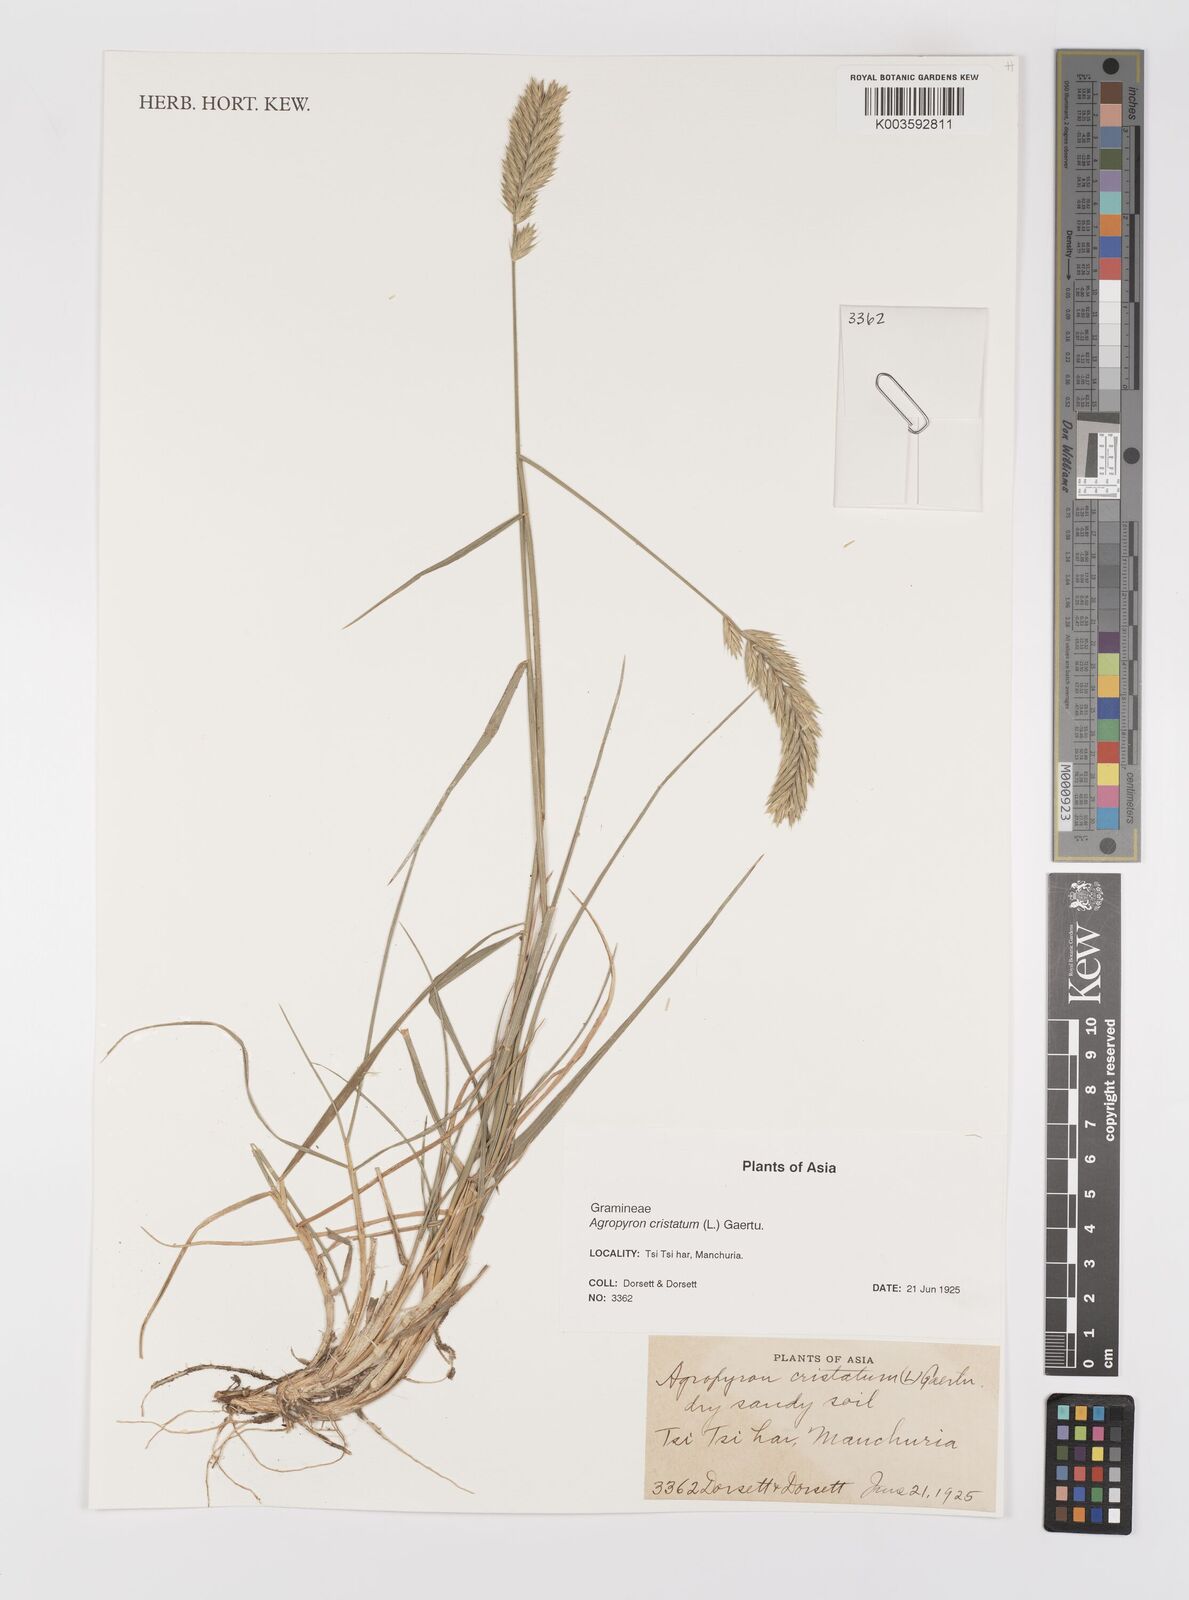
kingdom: Plantae
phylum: Tracheophyta
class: Liliopsida
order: Poales
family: Poaceae
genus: Agropyron
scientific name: Agropyron cristatum
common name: Crested wheatgrass
